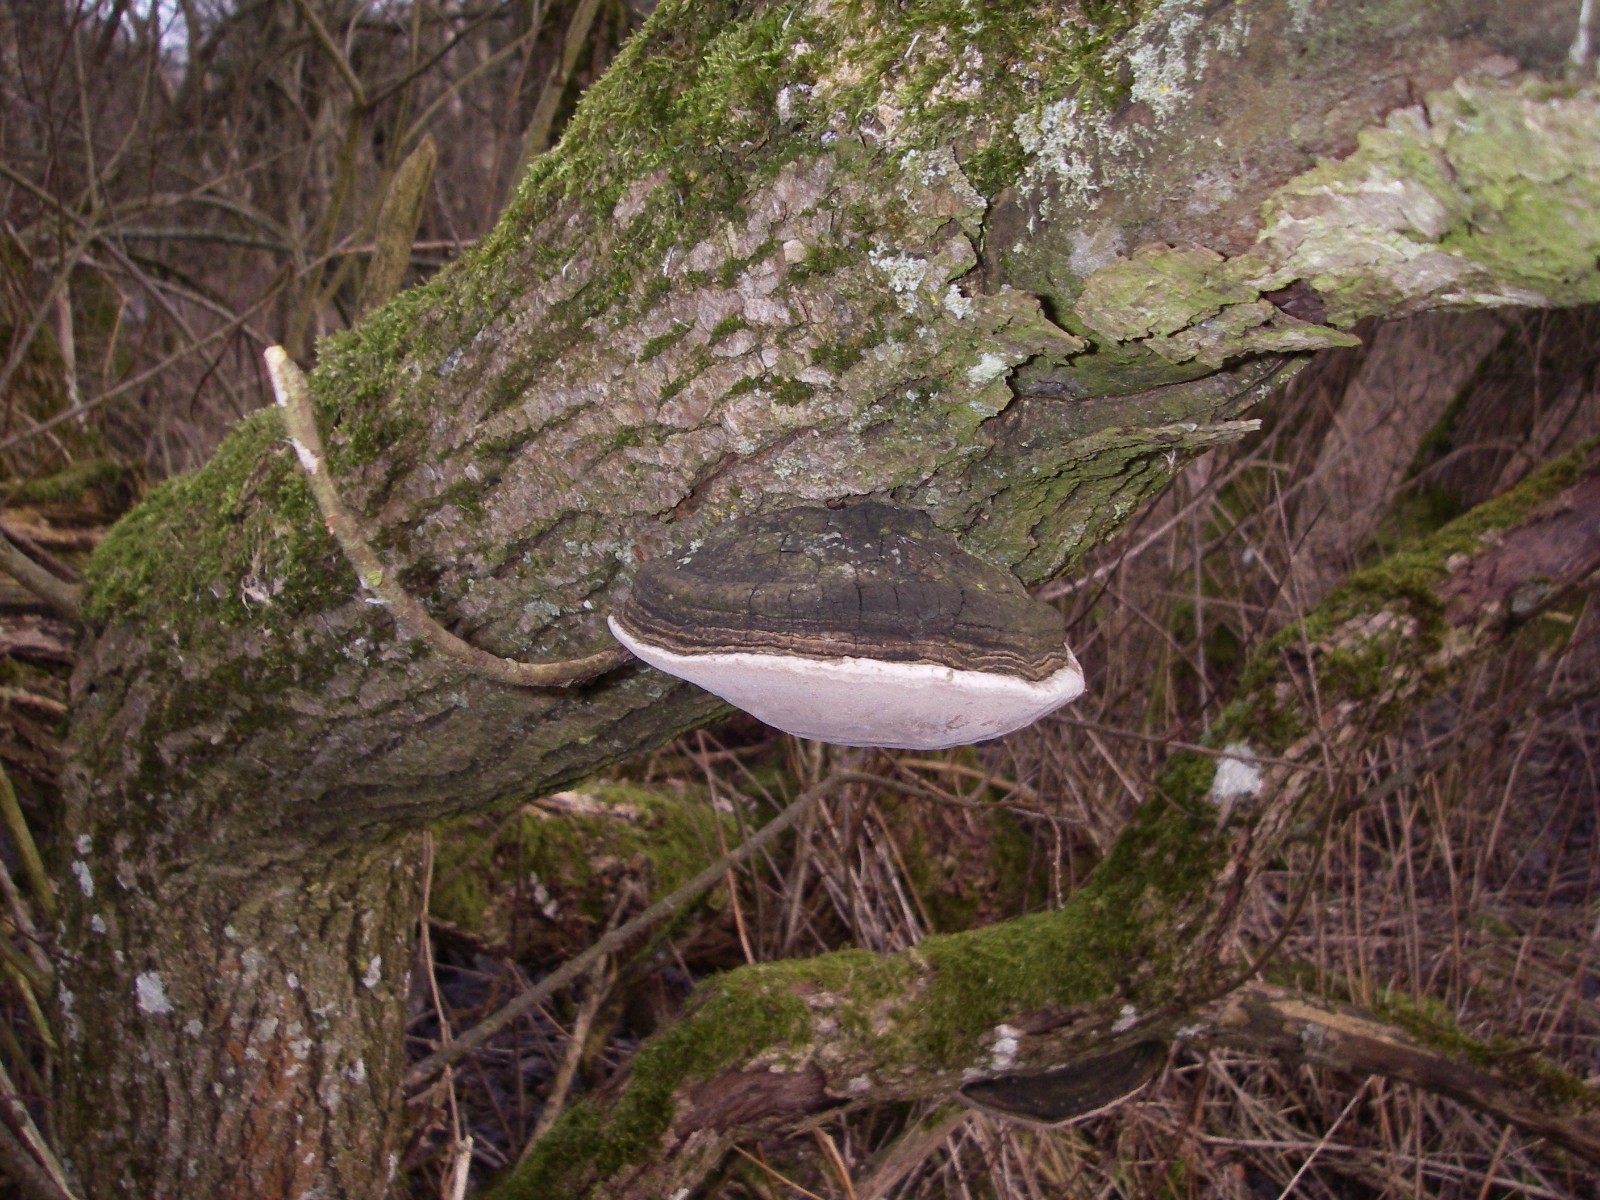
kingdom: Fungi
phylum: Basidiomycota
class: Agaricomycetes
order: Hymenochaetales
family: Hymenochaetaceae
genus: Phellinus
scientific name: Phellinus igniarius
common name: almindelig ildporesvamp
